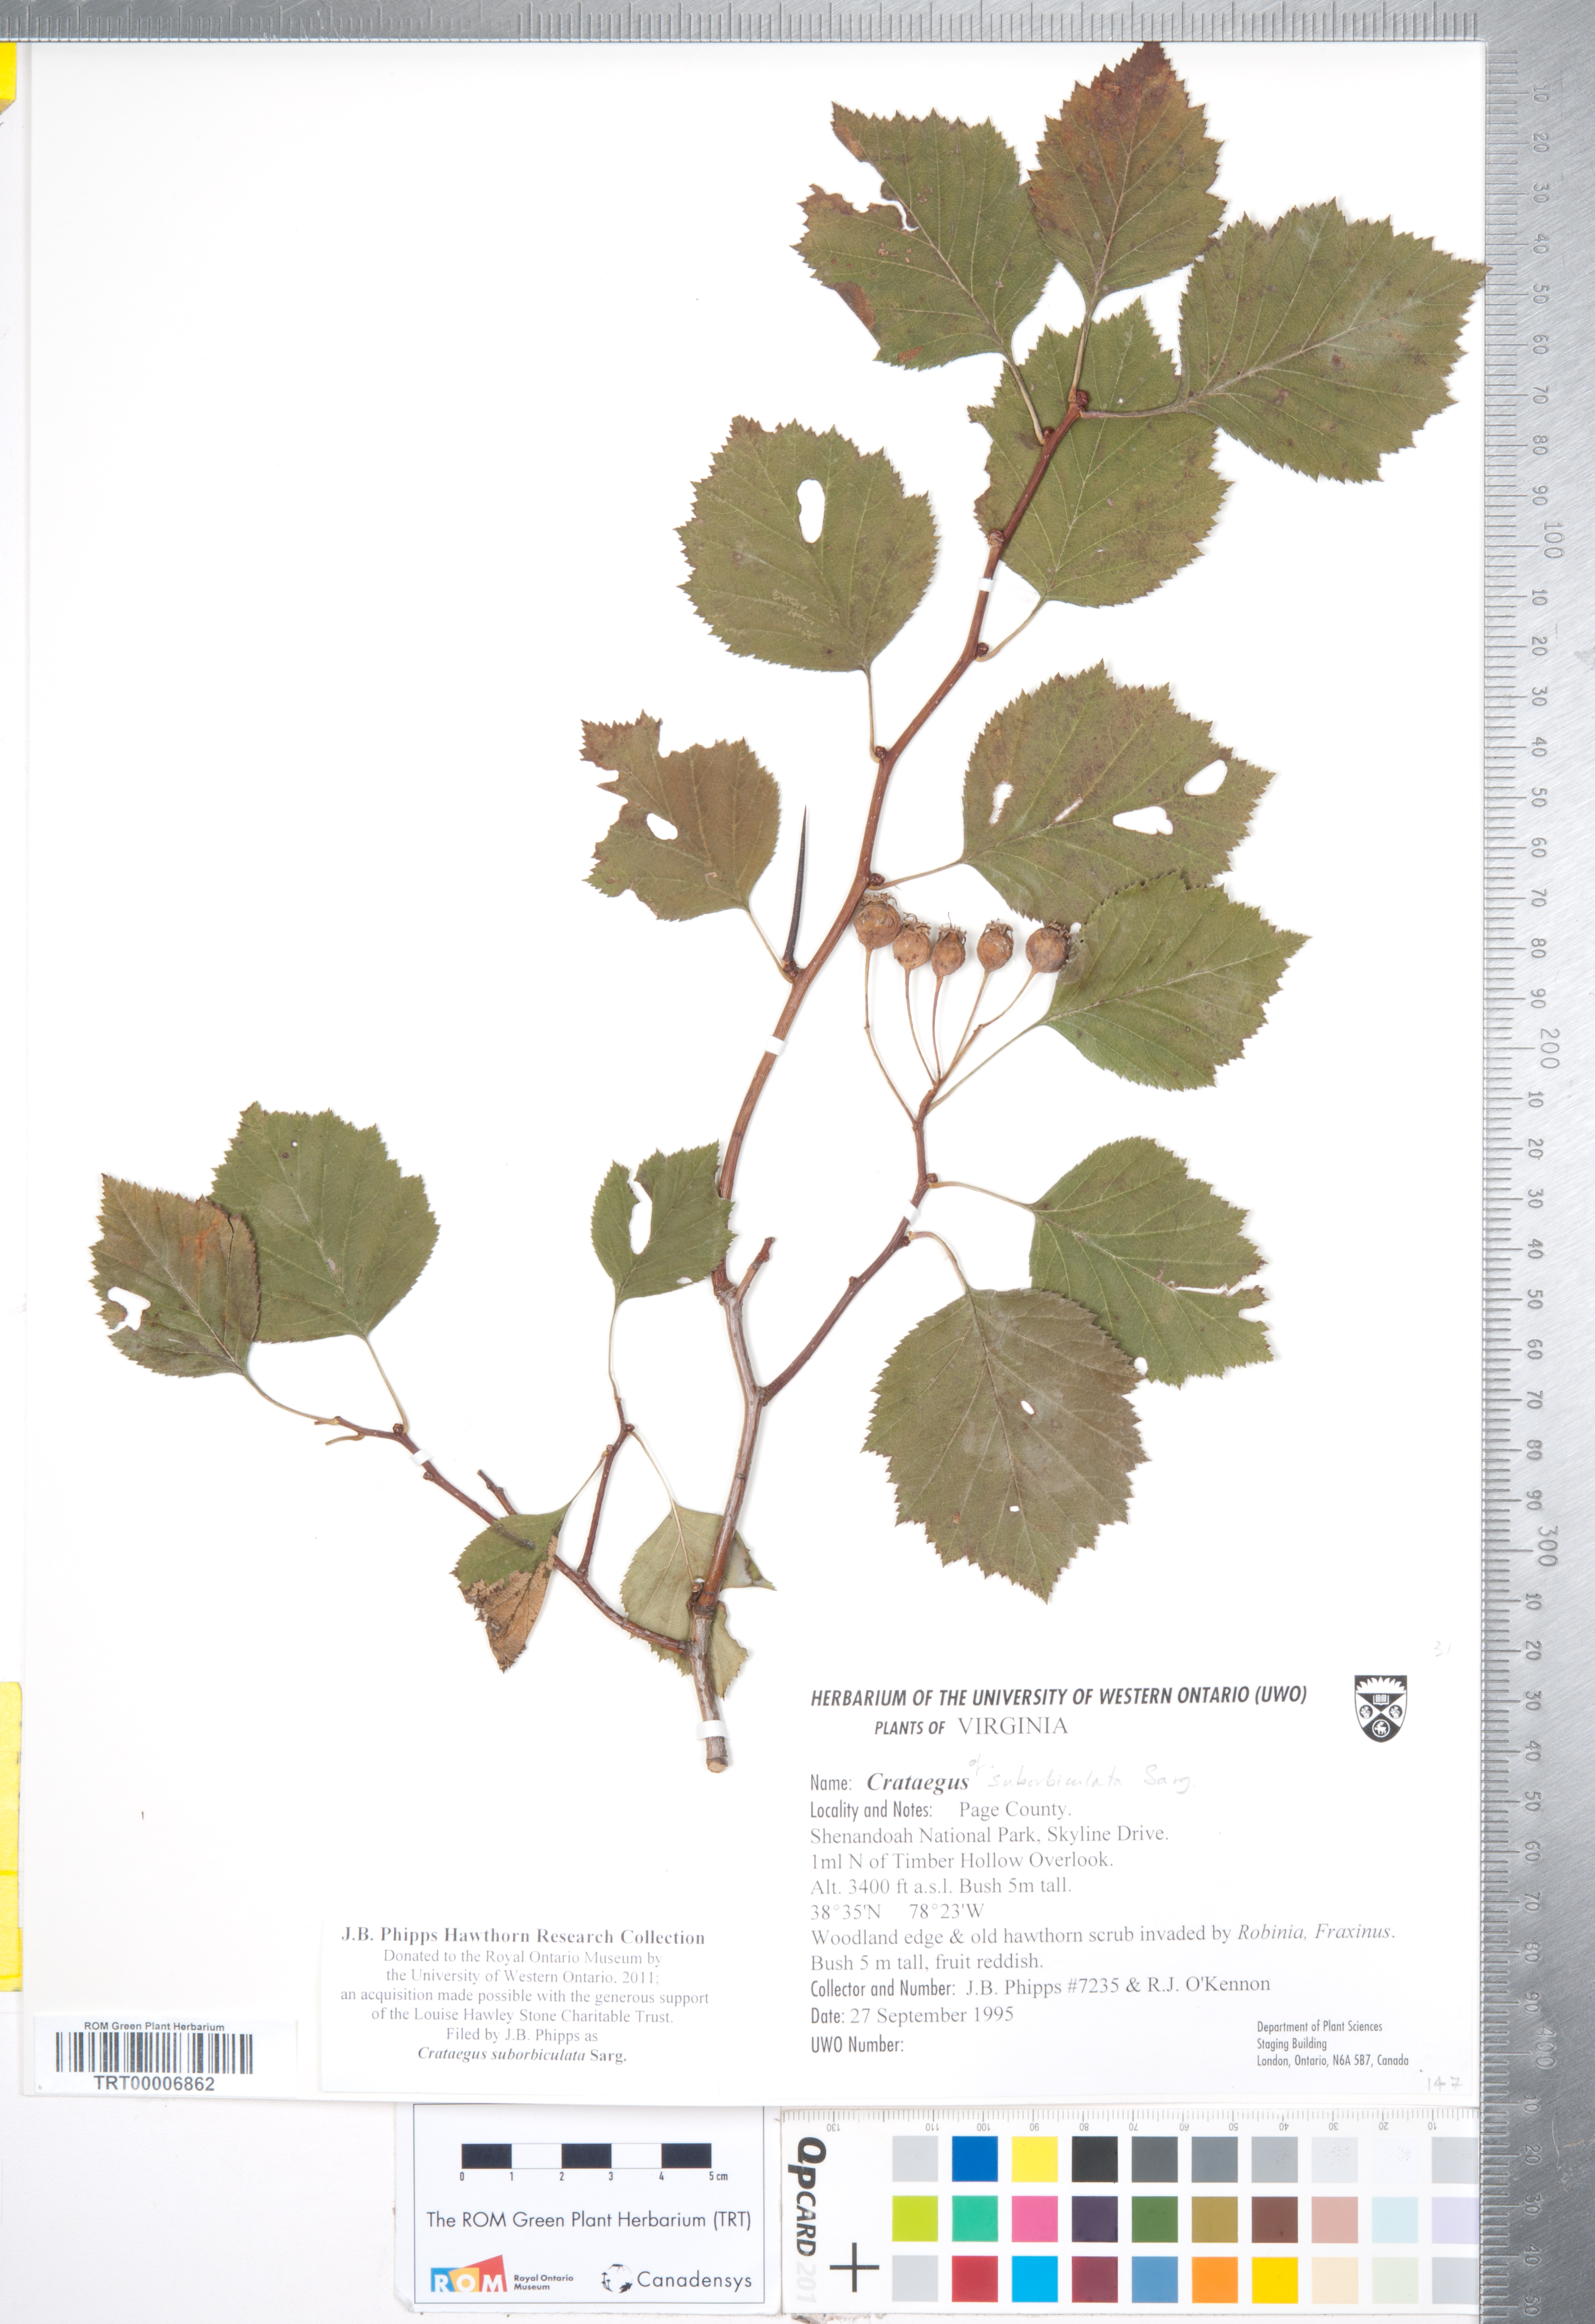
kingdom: Plantae
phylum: Tracheophyta
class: Magnoliopsida
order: Rosales
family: Rosaceae
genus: Crataegus
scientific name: Crataegus suborbiculata
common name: Caughnawaga hawthorn
